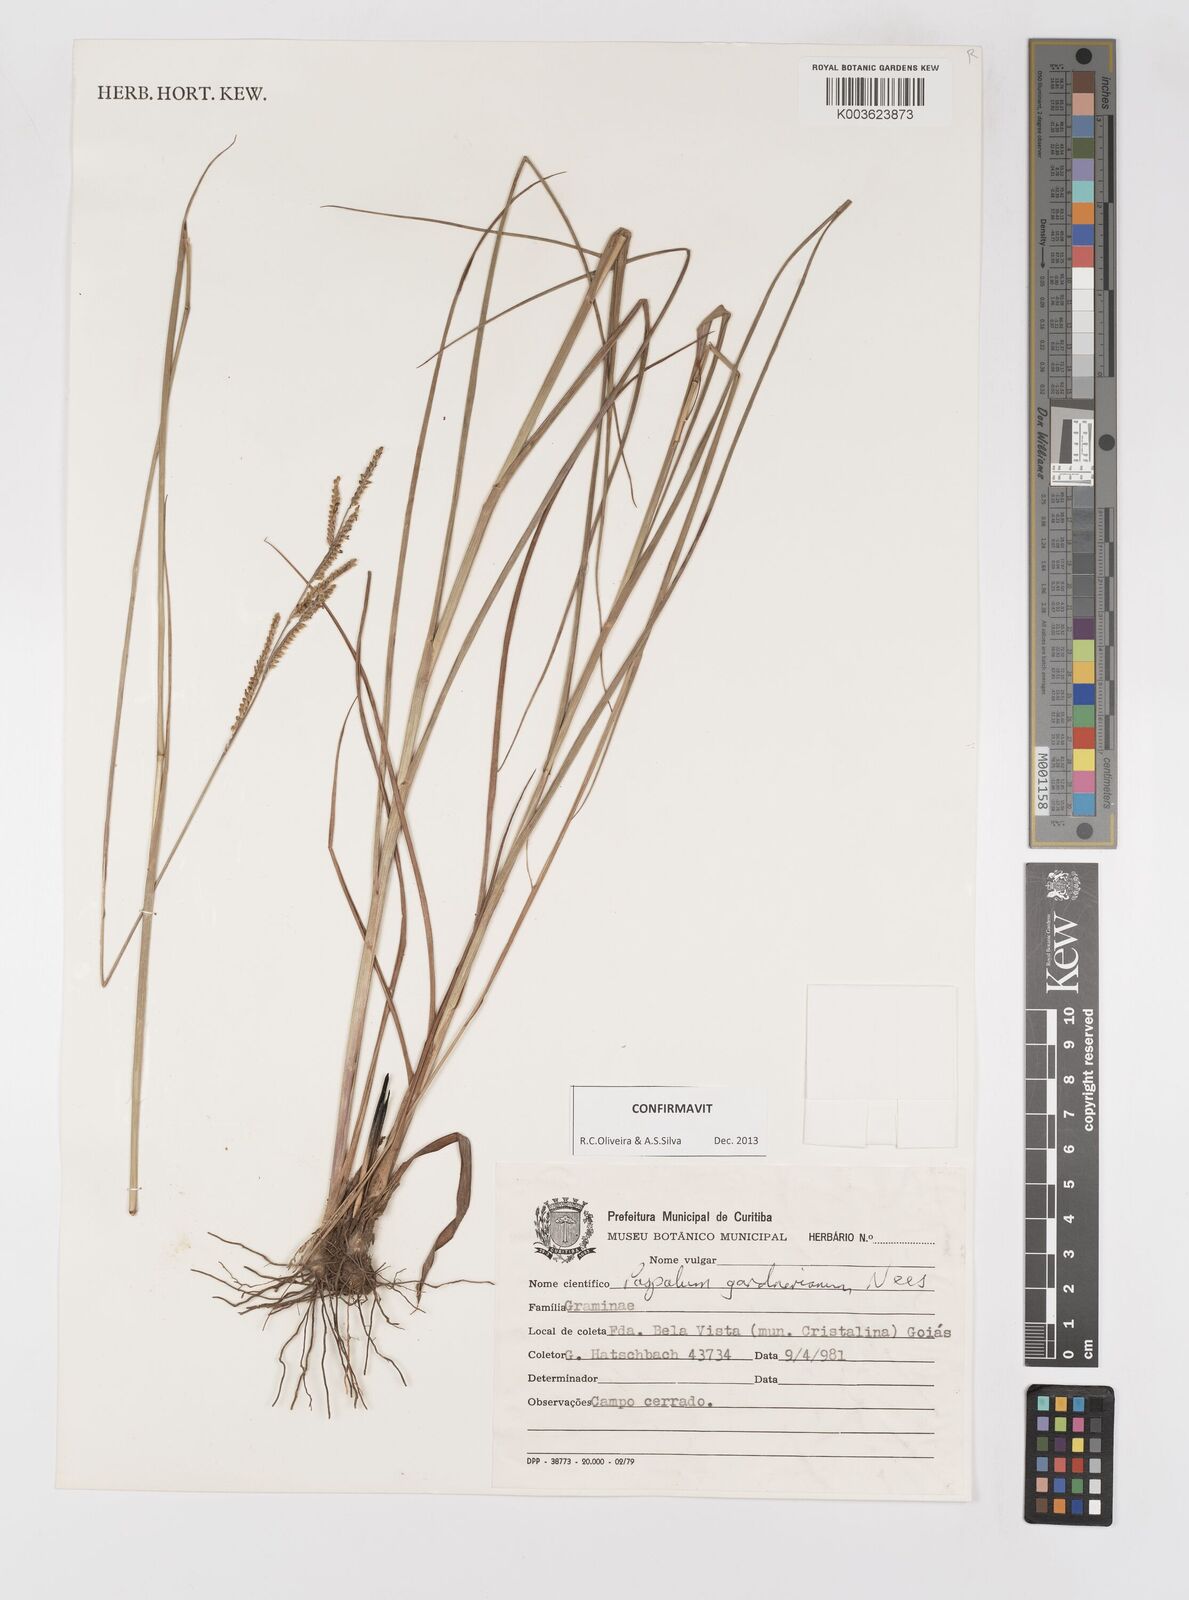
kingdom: Plantae
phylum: Tracheophyta
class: Liliopsida
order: Poales
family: Poaceae
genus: Paspalum
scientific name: Paspalum gardnerianum
